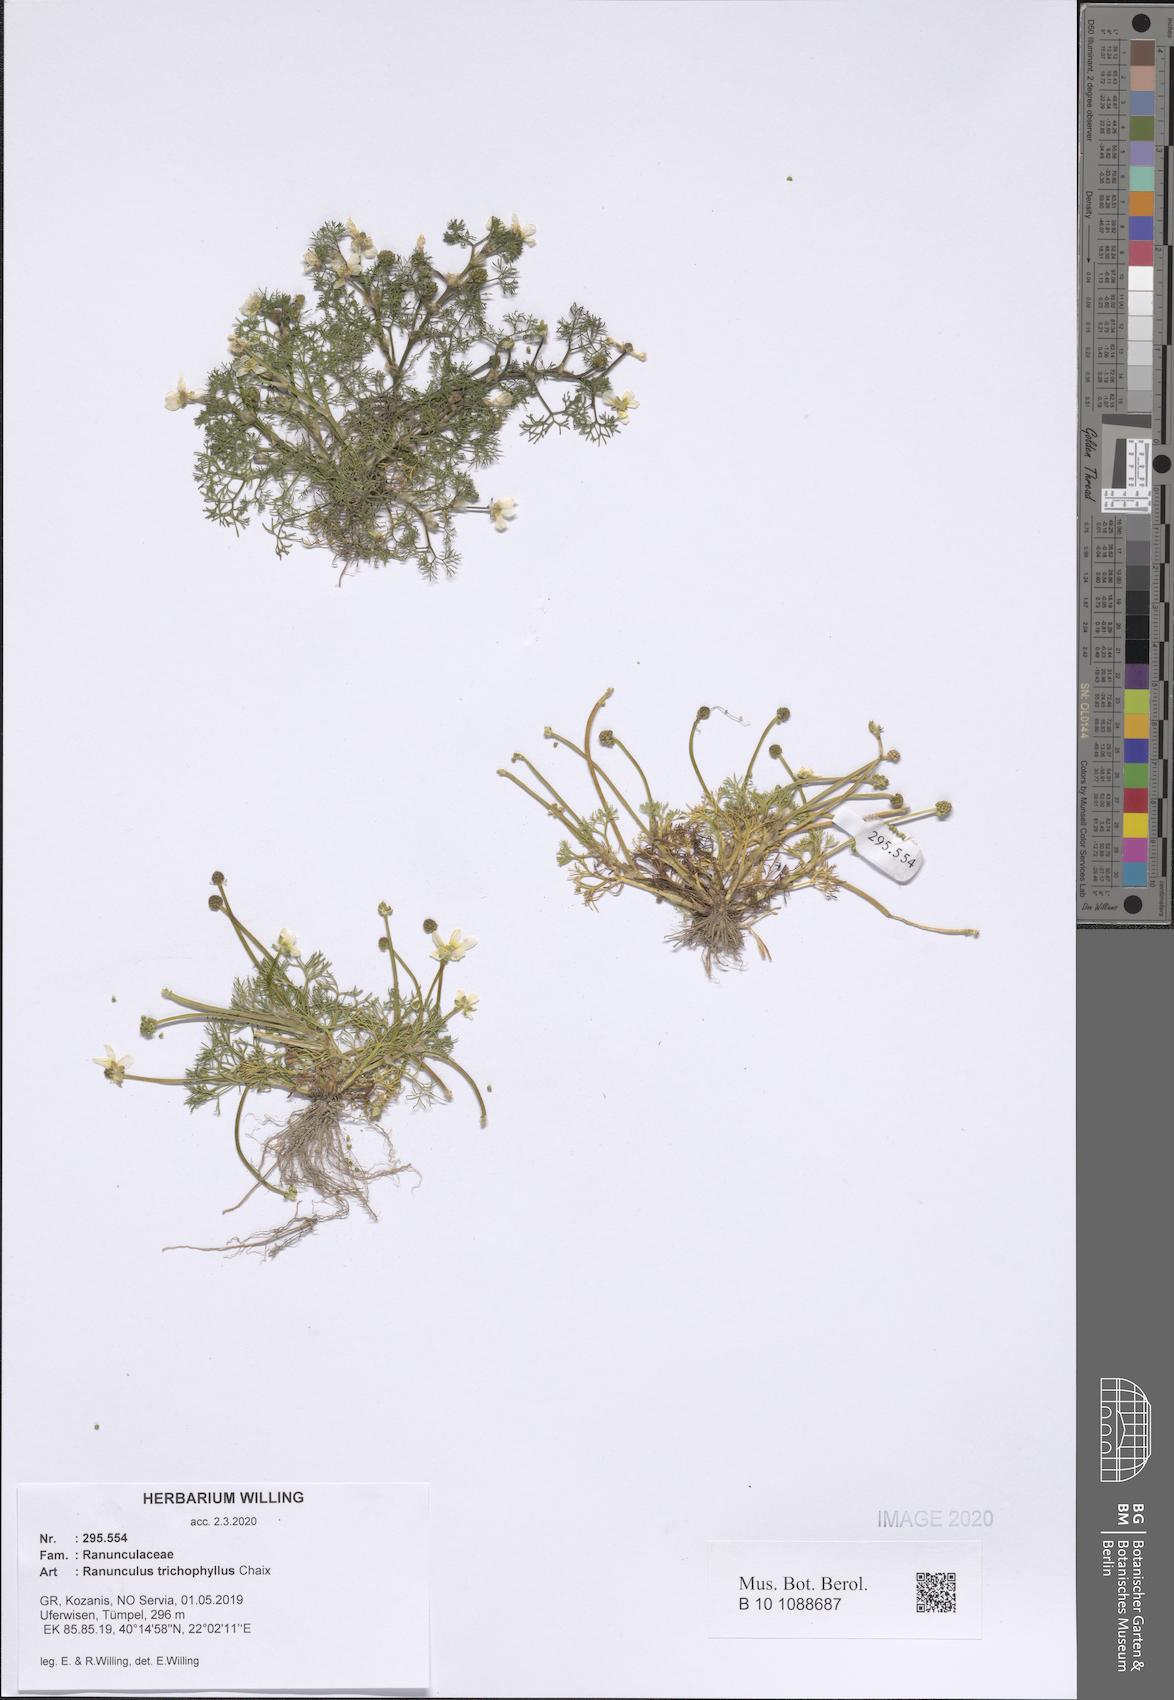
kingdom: Plantae
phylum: Tracheophyta
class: Magnoliopsida
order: Ranunculales
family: Ranunculaceae
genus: Ranunculus
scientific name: Ranunculus trichophyllus
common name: Thread-leaved water-crowfoot
